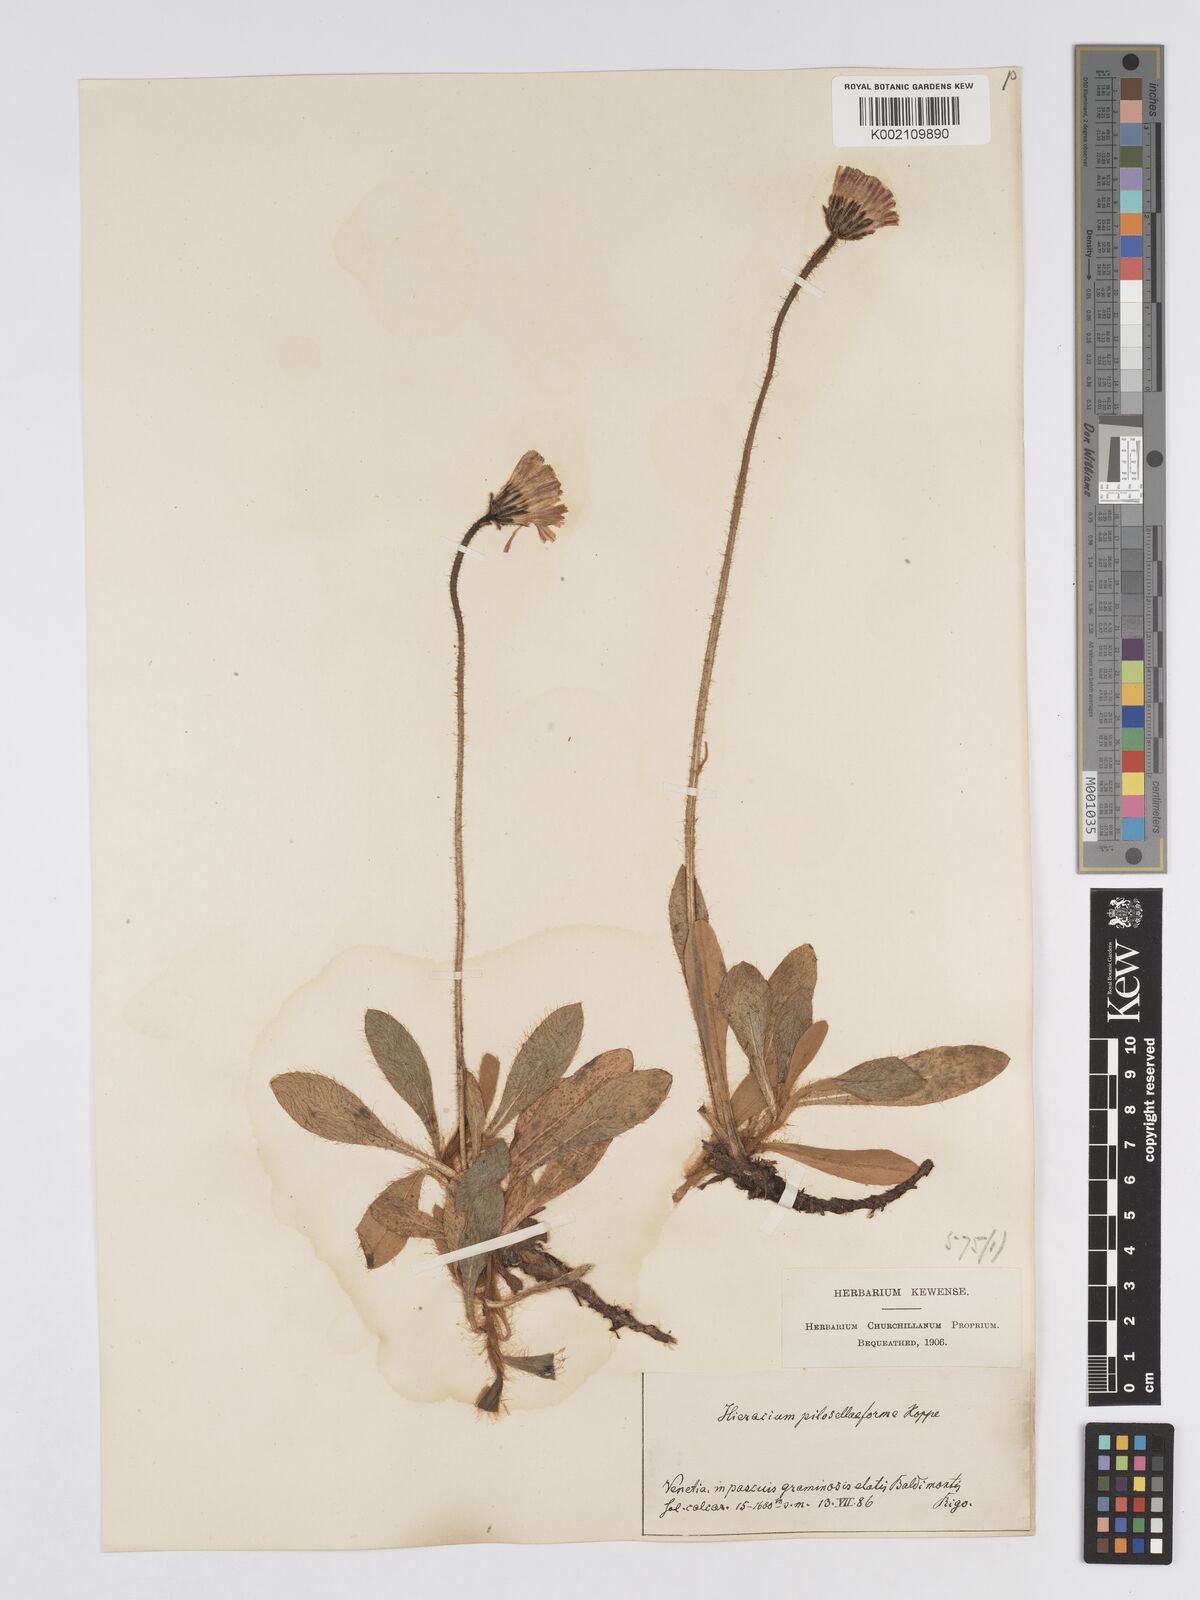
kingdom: Plantae
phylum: Tracheophyta
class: Magnoliopsida
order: Asterales
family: Asteraceae
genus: Pilosella
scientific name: Pilosella hoppeana
